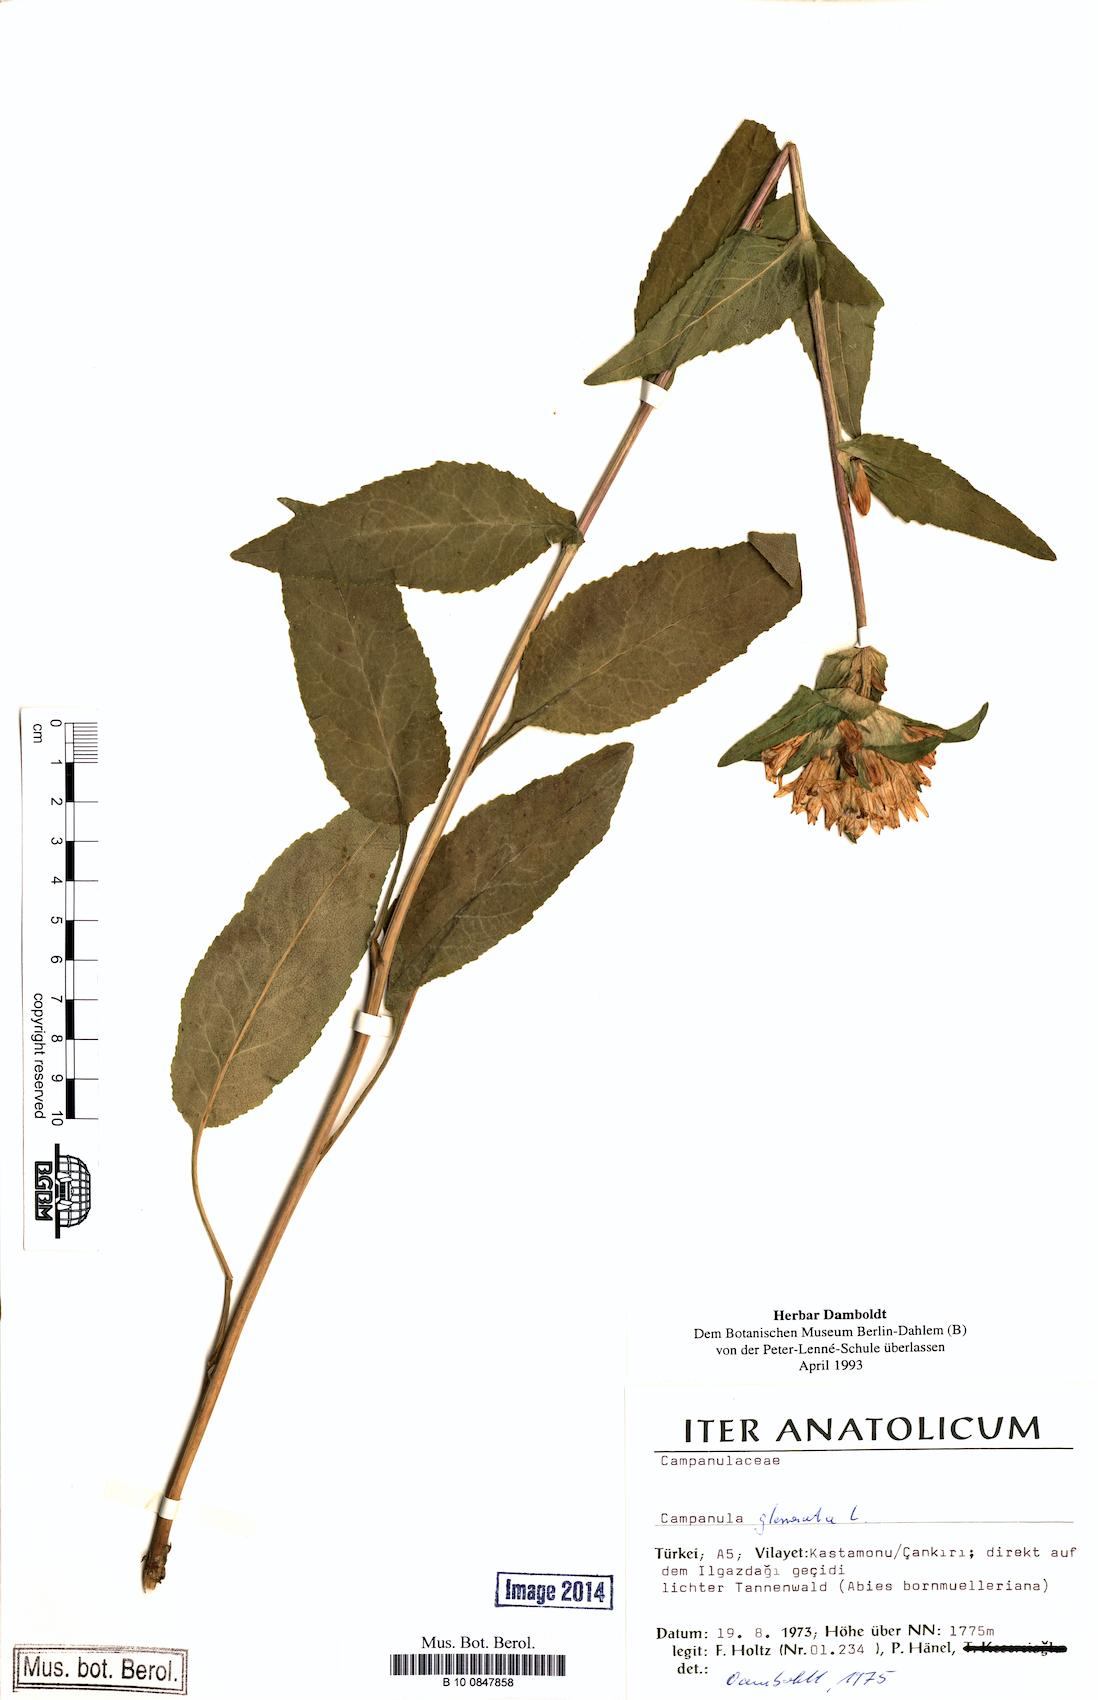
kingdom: Plantae
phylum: Tracheophyta
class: Magnoliopsida
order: Asterales
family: Campanulaceae
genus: Campanula
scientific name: Campanula glomerata
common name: Clustered bellflower
